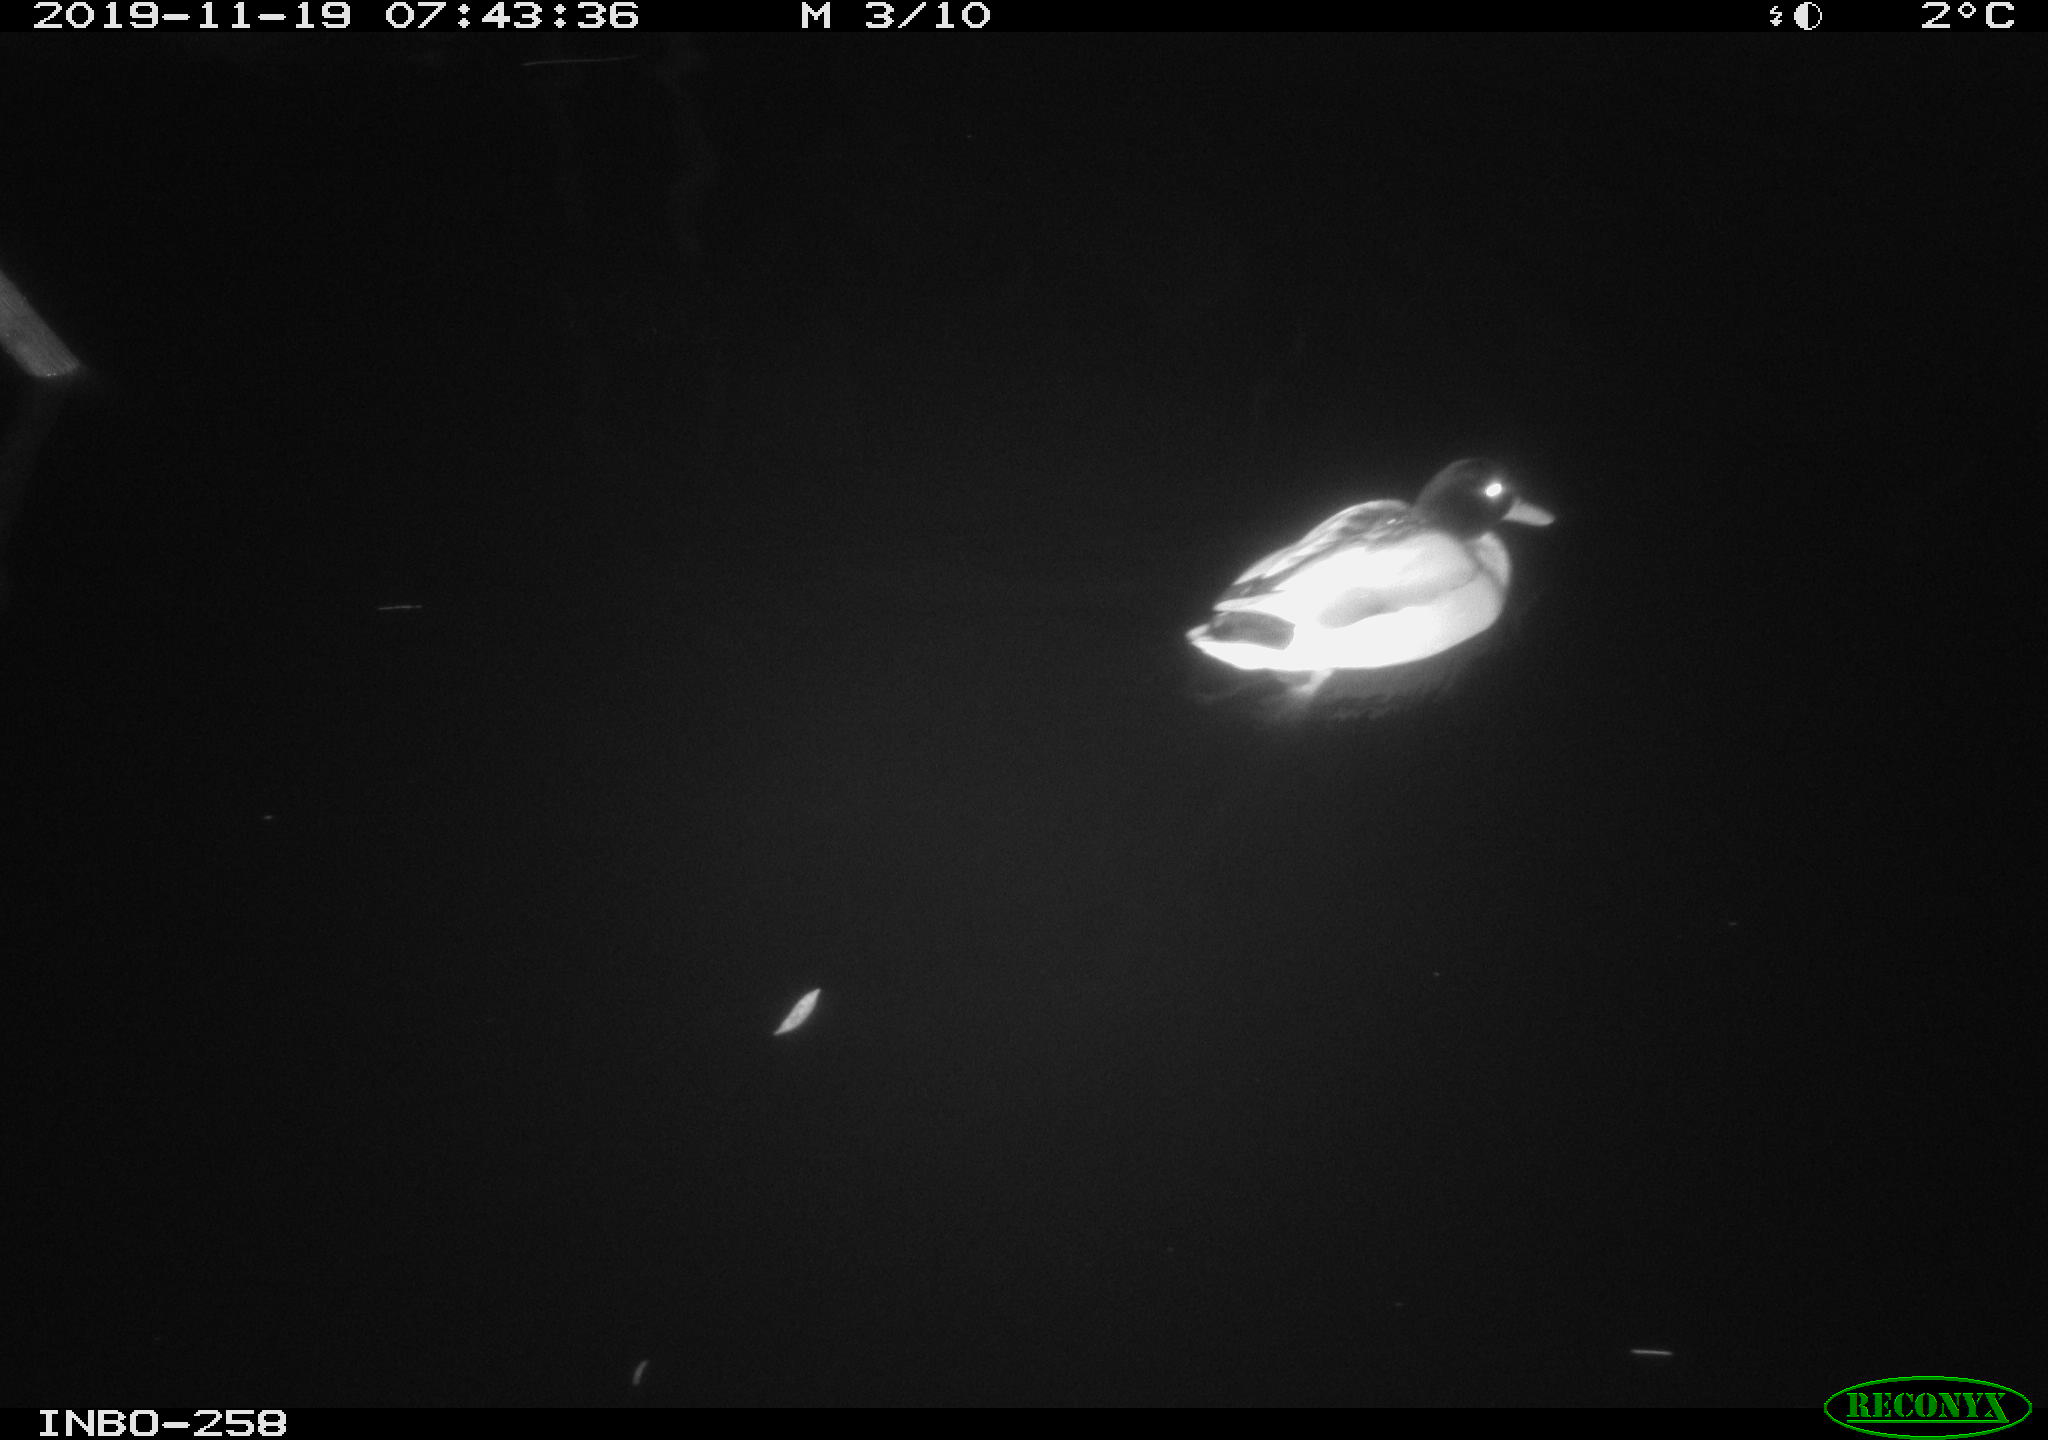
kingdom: Animalia
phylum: Chordata
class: Aves
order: Anseriformes
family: Anatidae
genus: Anas
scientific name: Anas platyrhynchos
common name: Mallard
